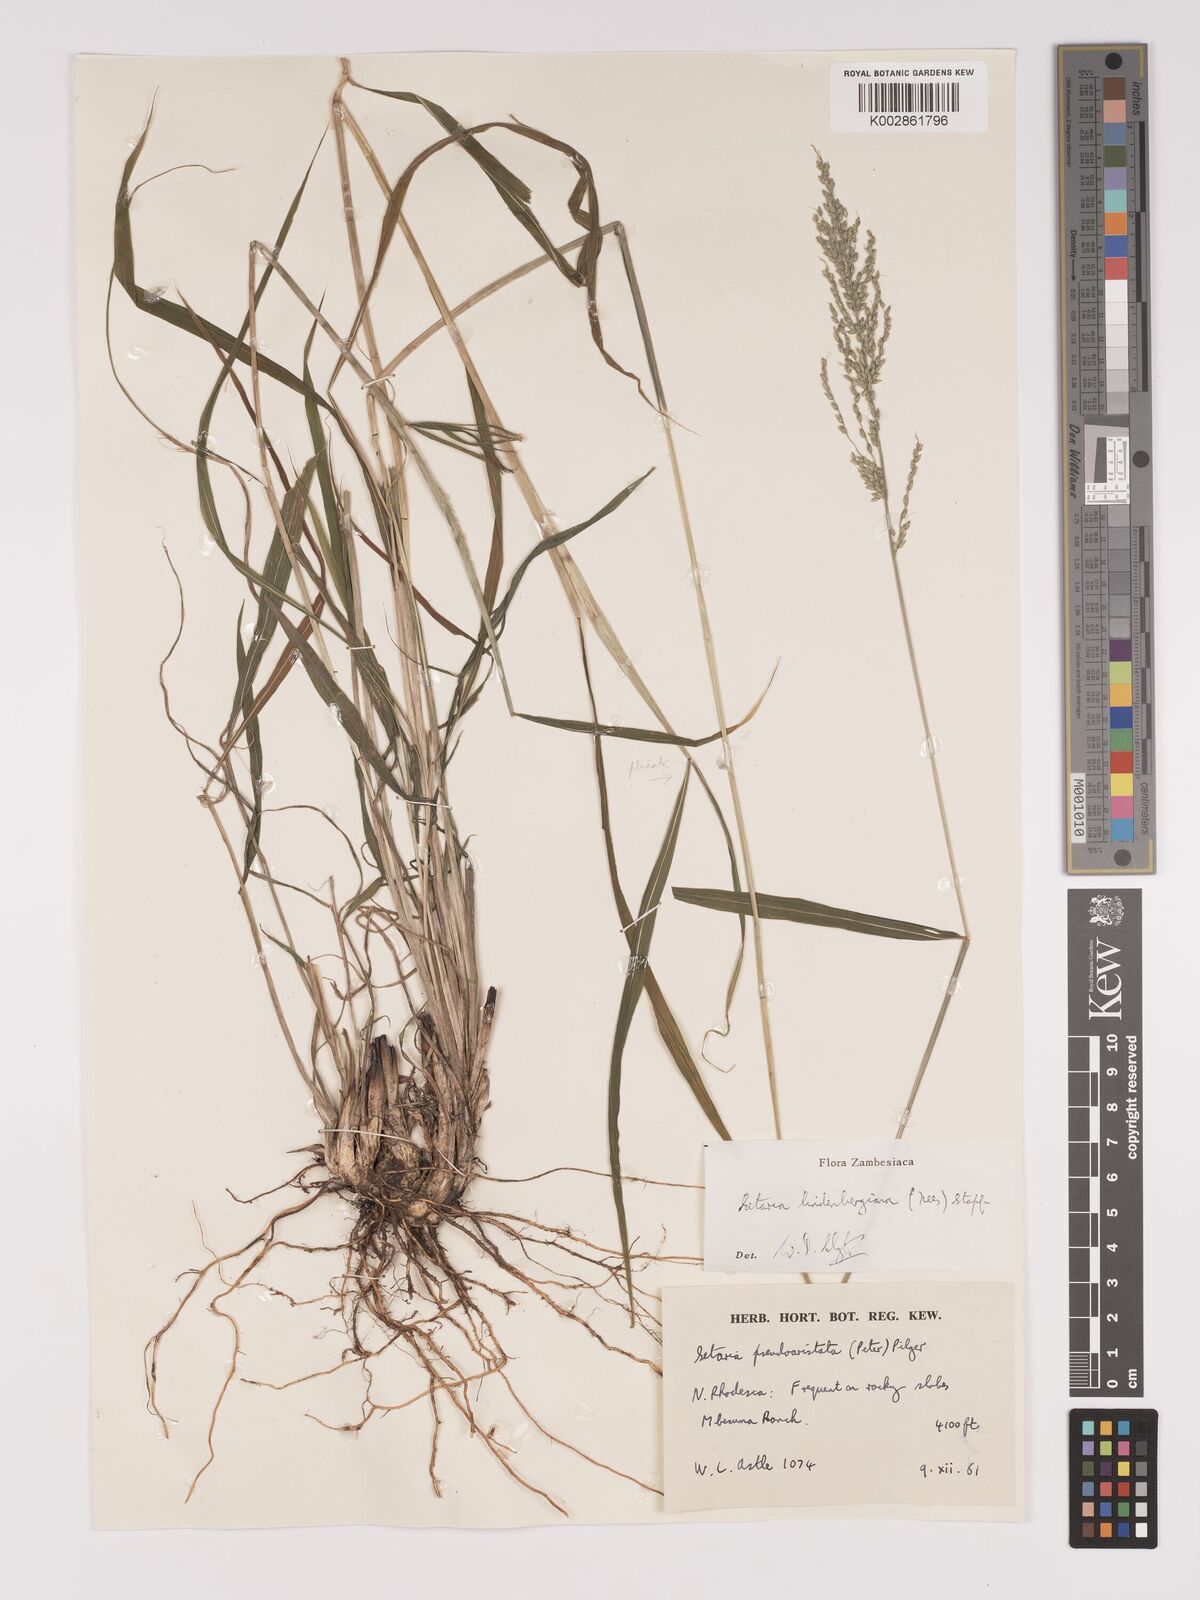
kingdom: Plantae
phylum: Tracheophyta
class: Liliopsida
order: Poales
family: Poaceae
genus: Setaria
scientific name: Setaria lindenbergiana
